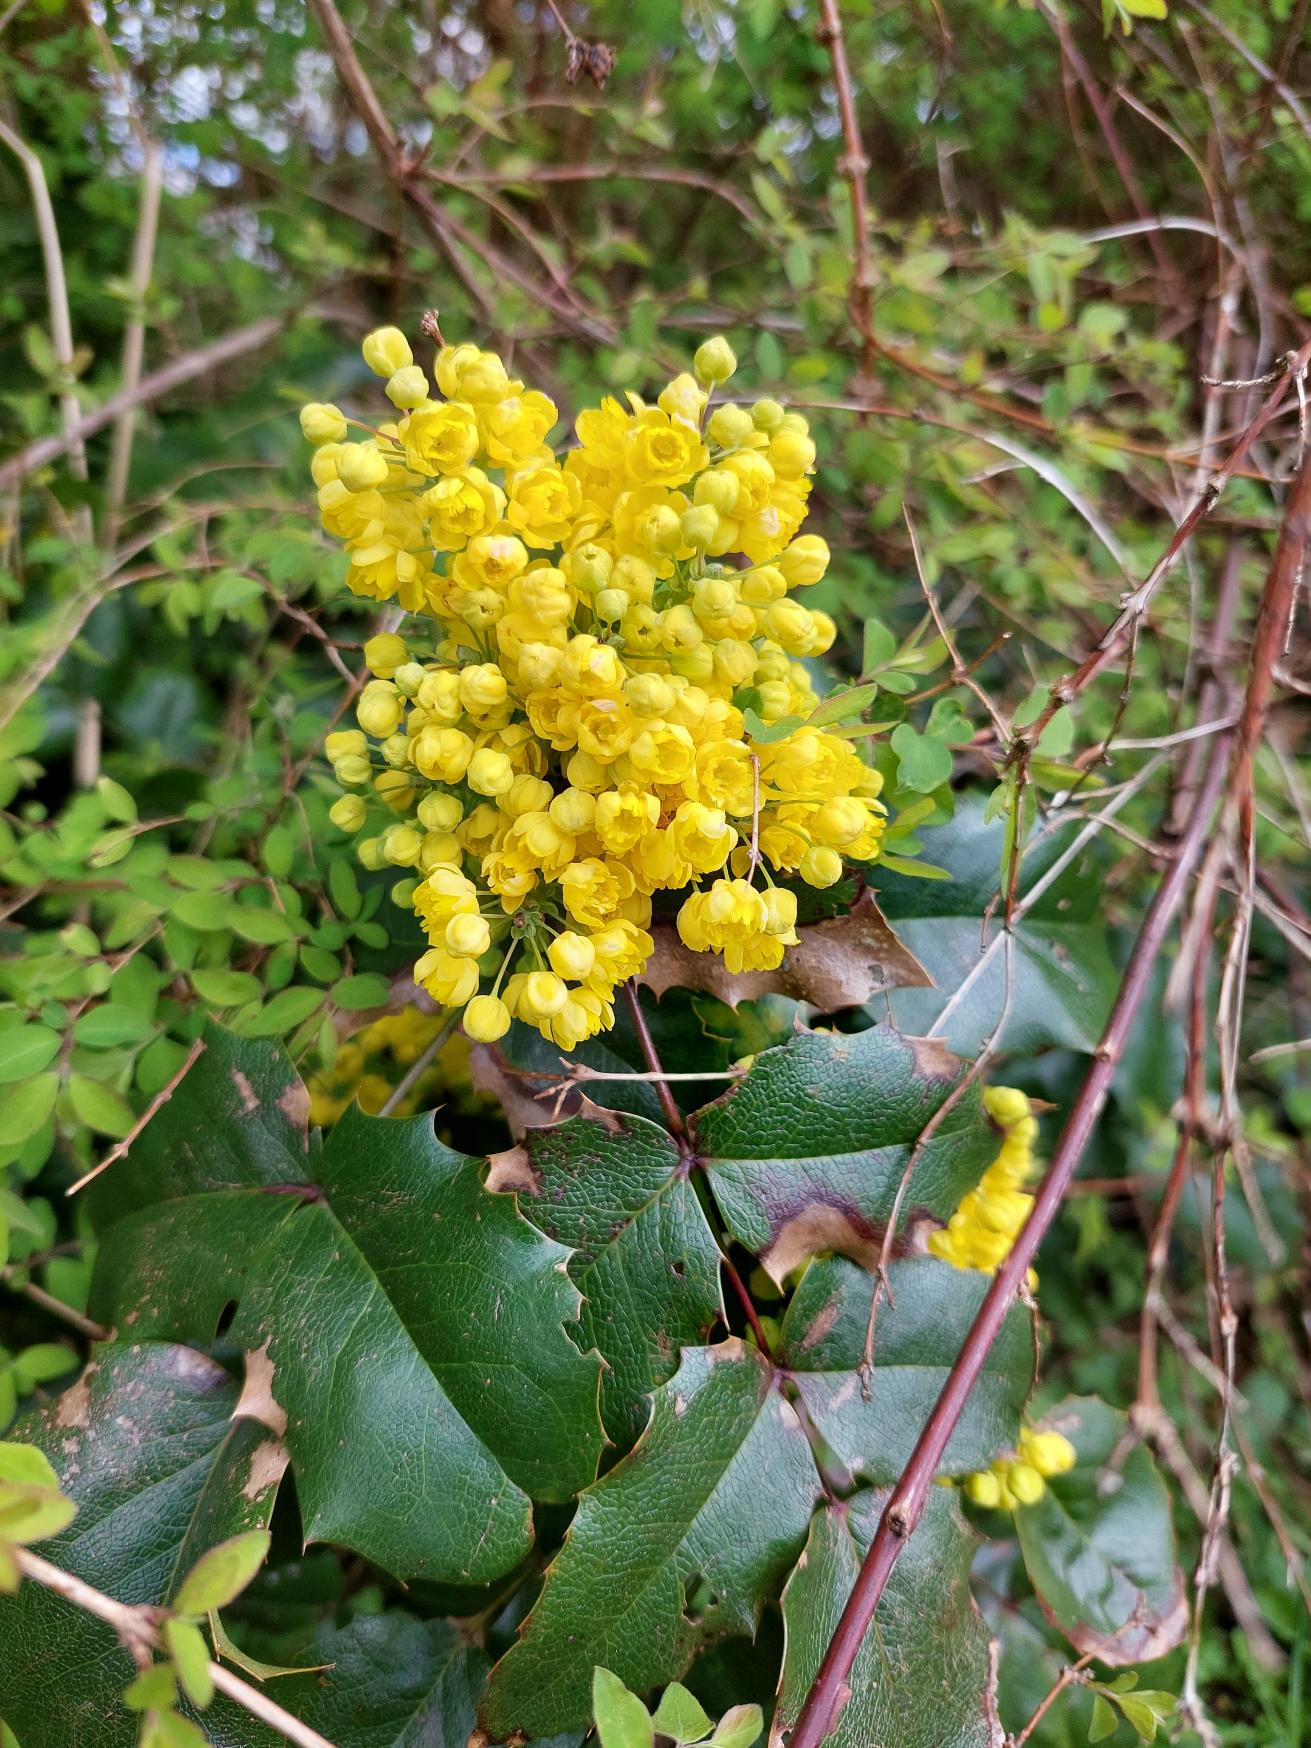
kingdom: Plantae
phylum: Tracheophyta
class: Magnoliopsida
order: Ranunculales
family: Berberidaceae
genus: Mahonia
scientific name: Mahonia aquifolium
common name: Almindelig mahonie
